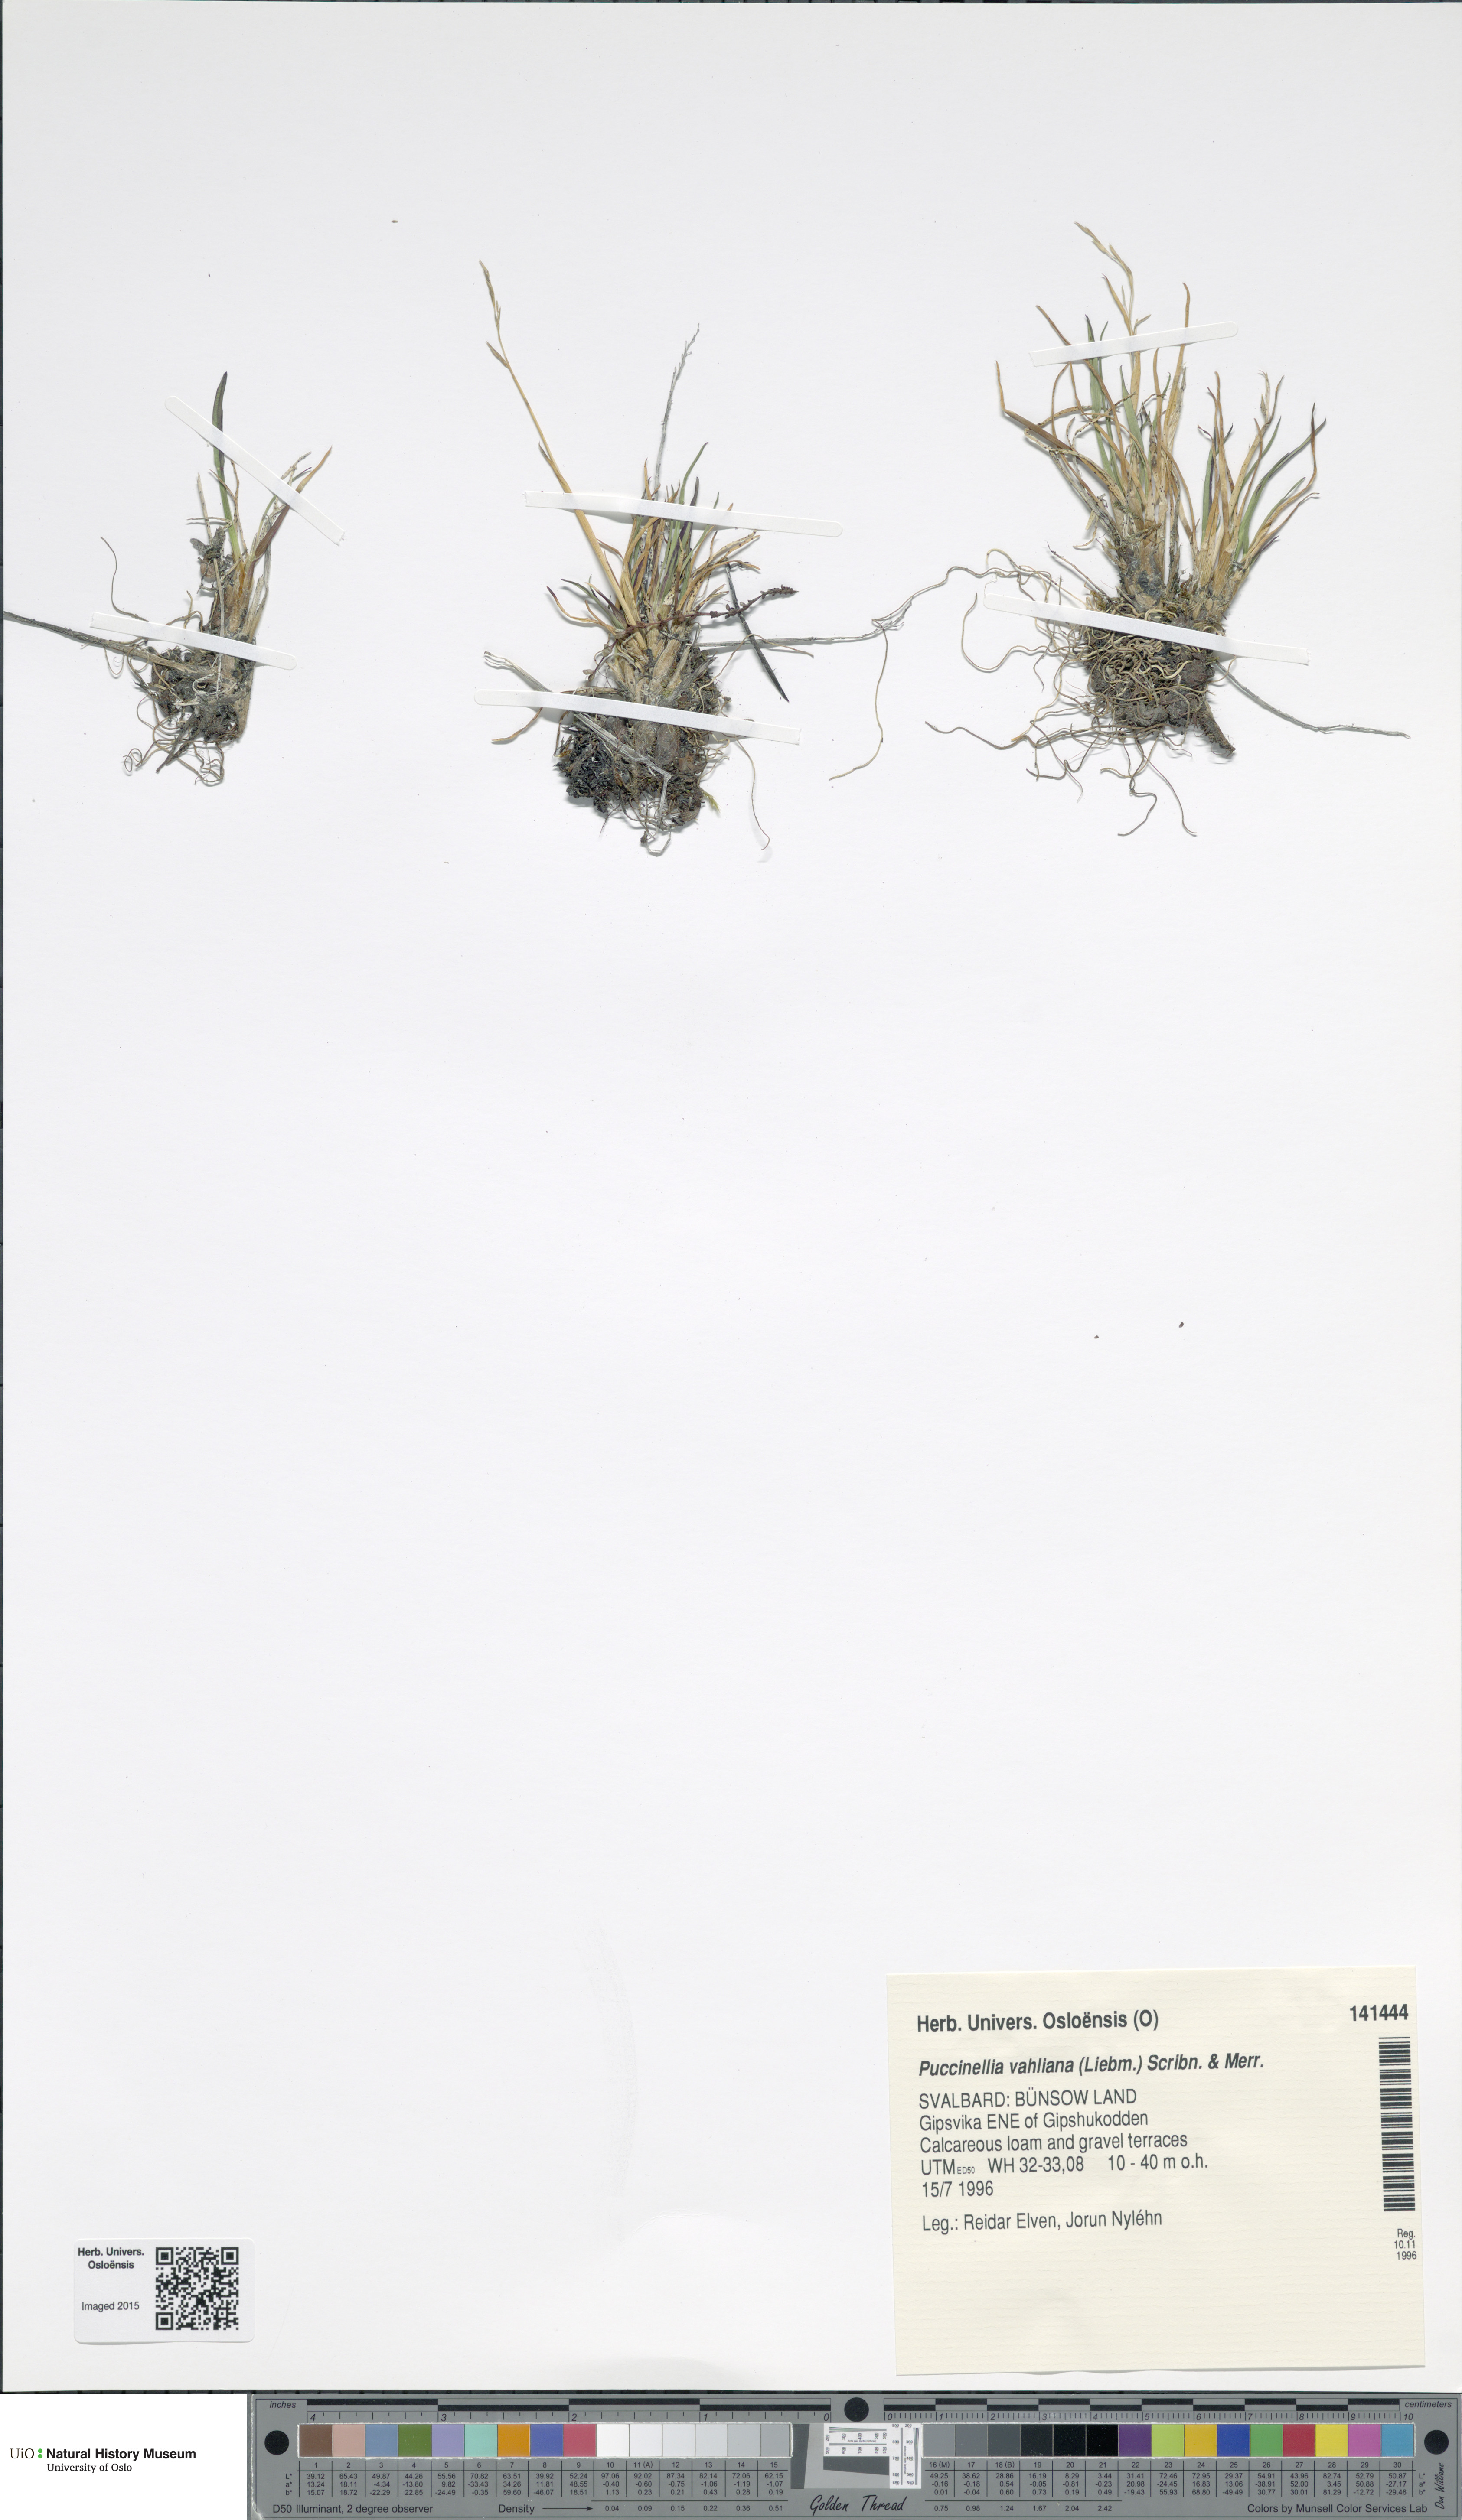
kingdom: Plantae
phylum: Tracheophyta
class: Liliopsida
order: Poales
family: Poaceae
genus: Puccinellia
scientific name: Puccinellia vahliana
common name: Vahl's alkaligrass
